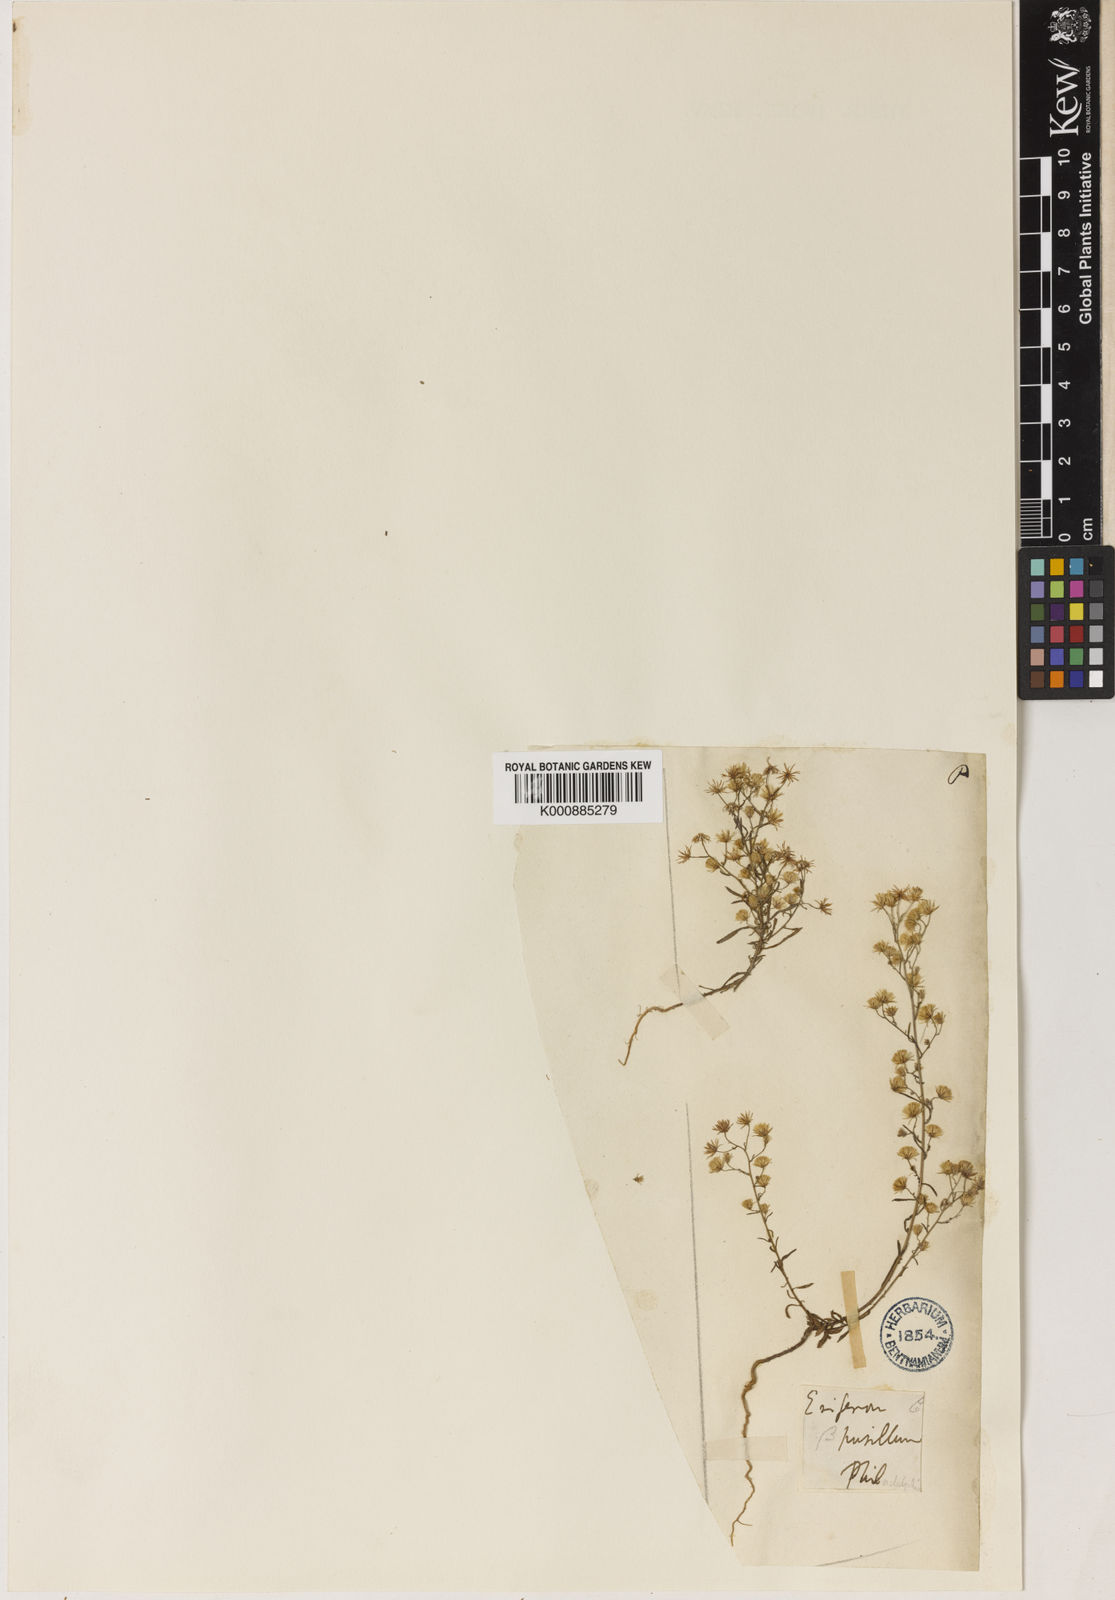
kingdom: Plantae
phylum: Tracheophyta
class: Magnoliopsida
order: Asterales
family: Asteraceae
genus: Erigeron
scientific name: Erigeron Conyza pusilla
